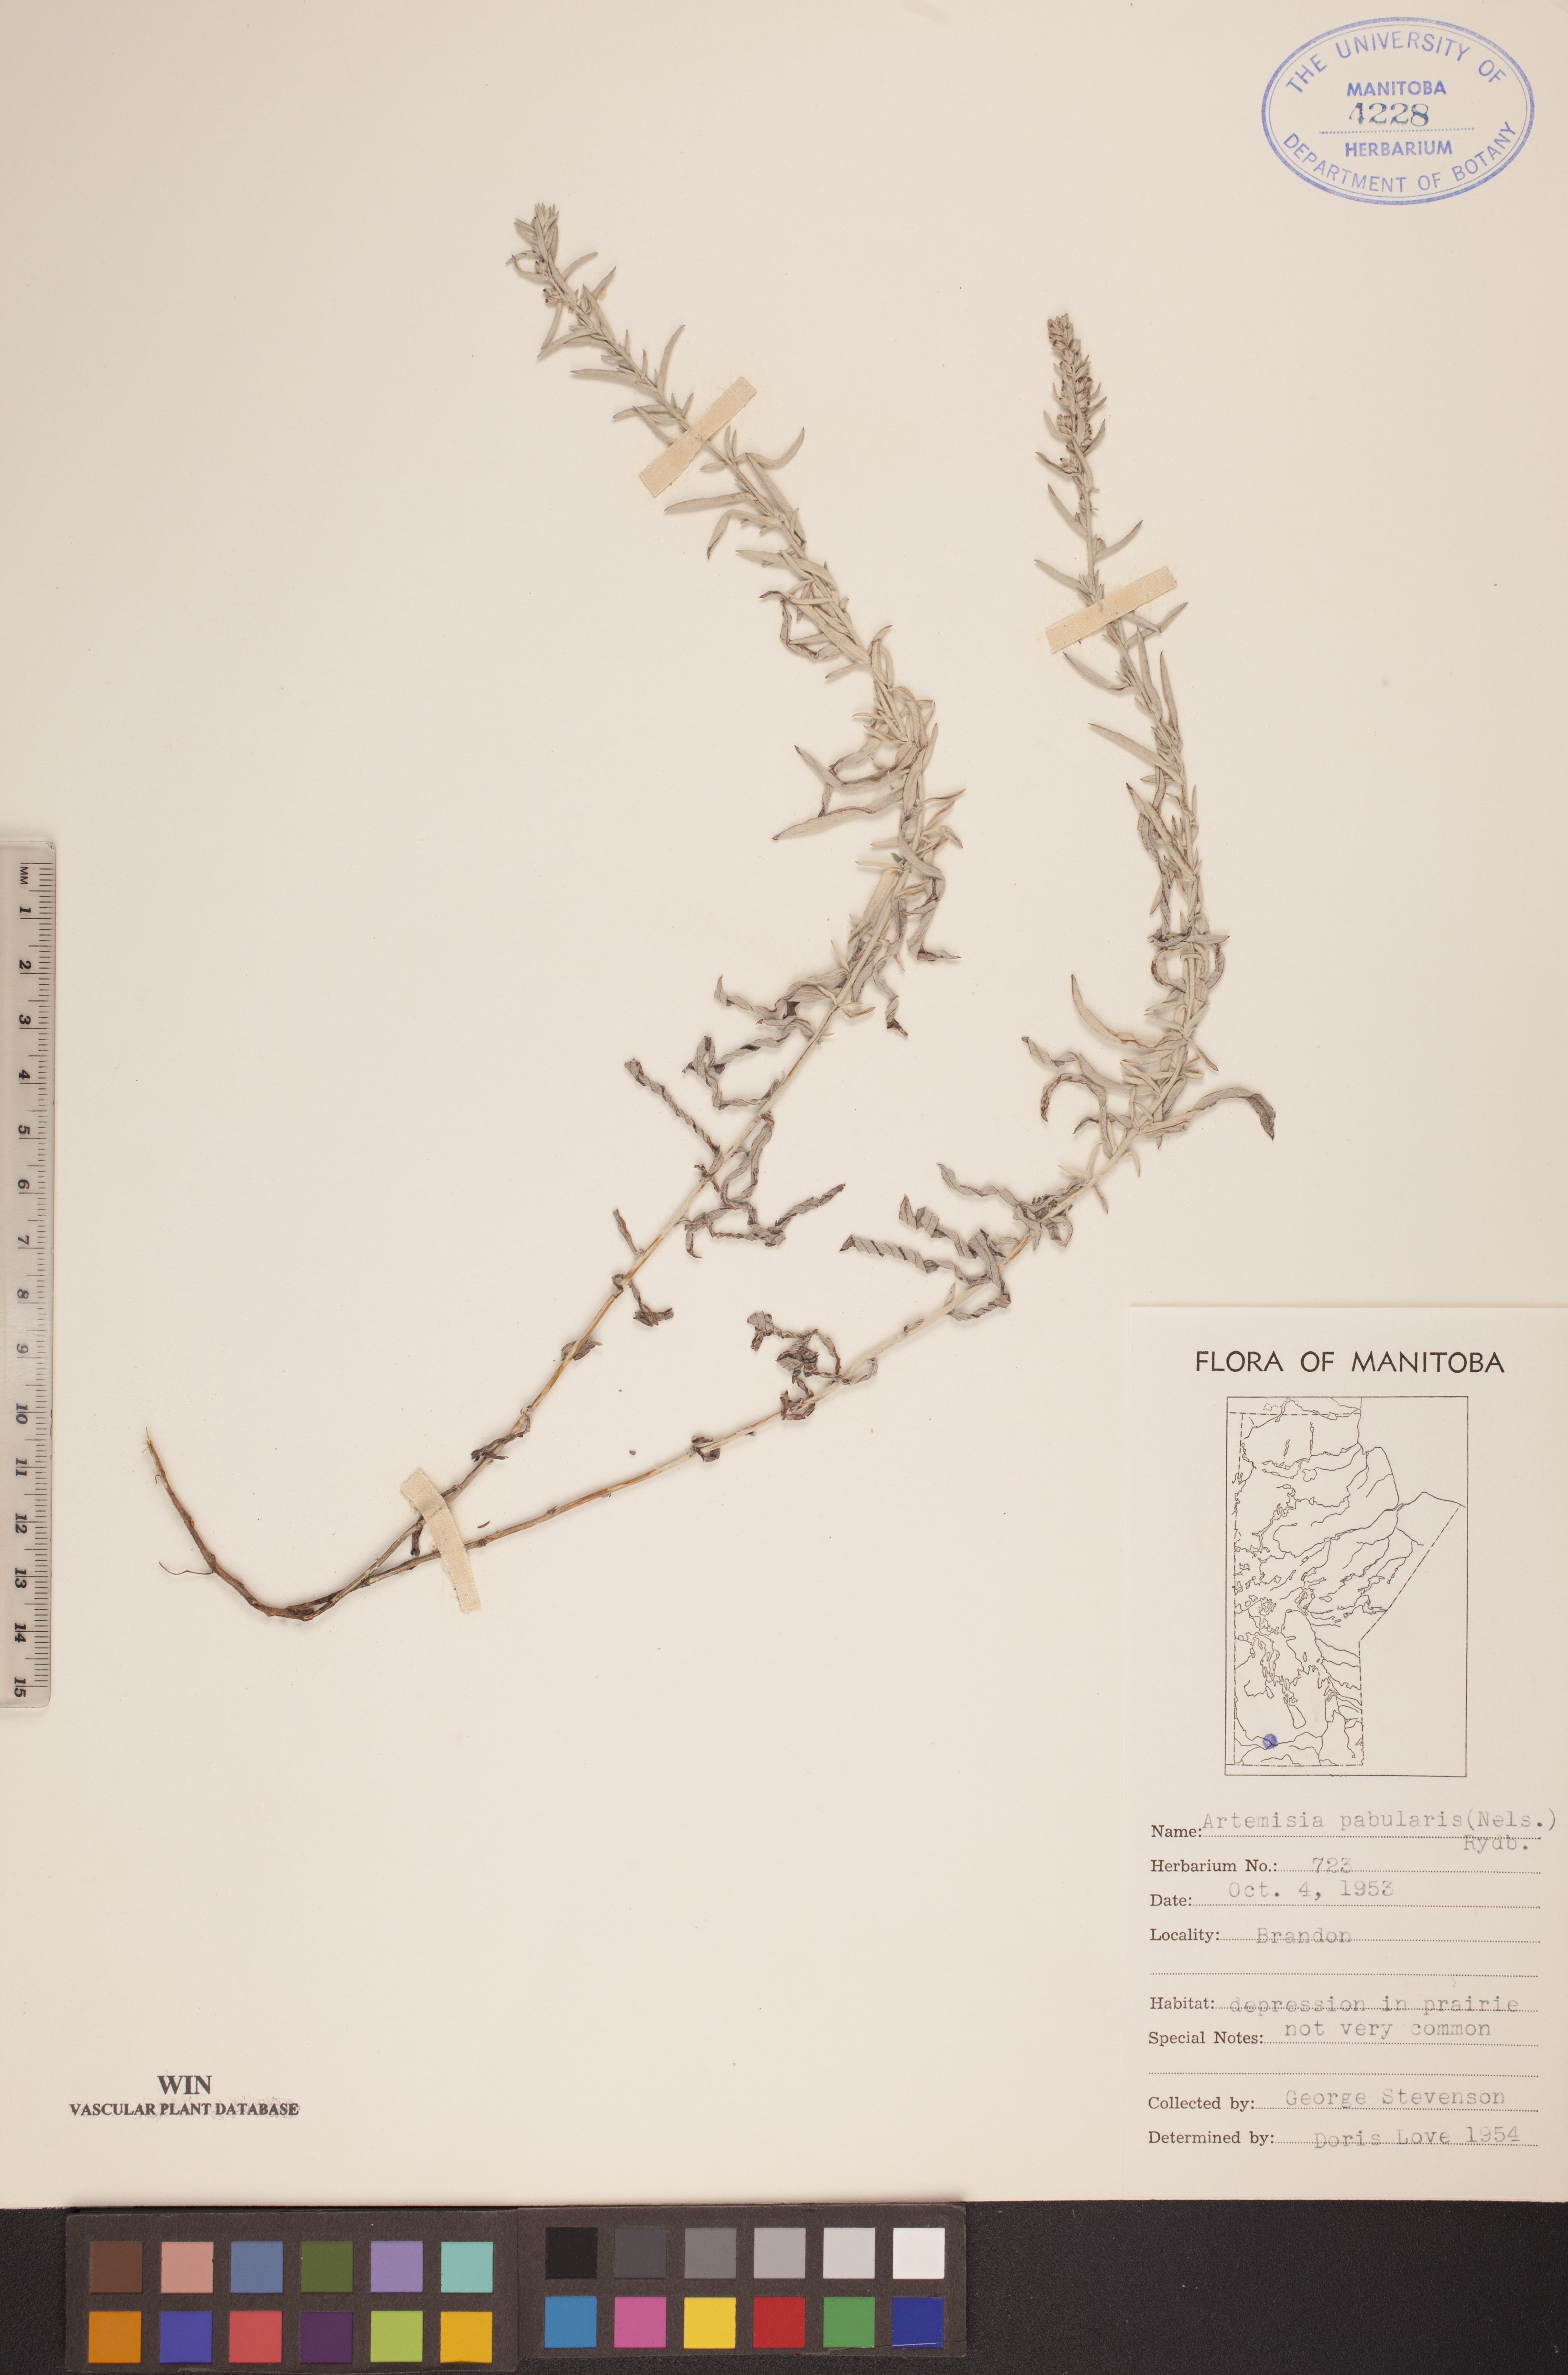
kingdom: Plantae
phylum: Tracheophyta
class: Magnoliopsida
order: Asterales
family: Asteraceae
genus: Artemisia
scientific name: Artemisia ludoviciana
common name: Western mugwort
